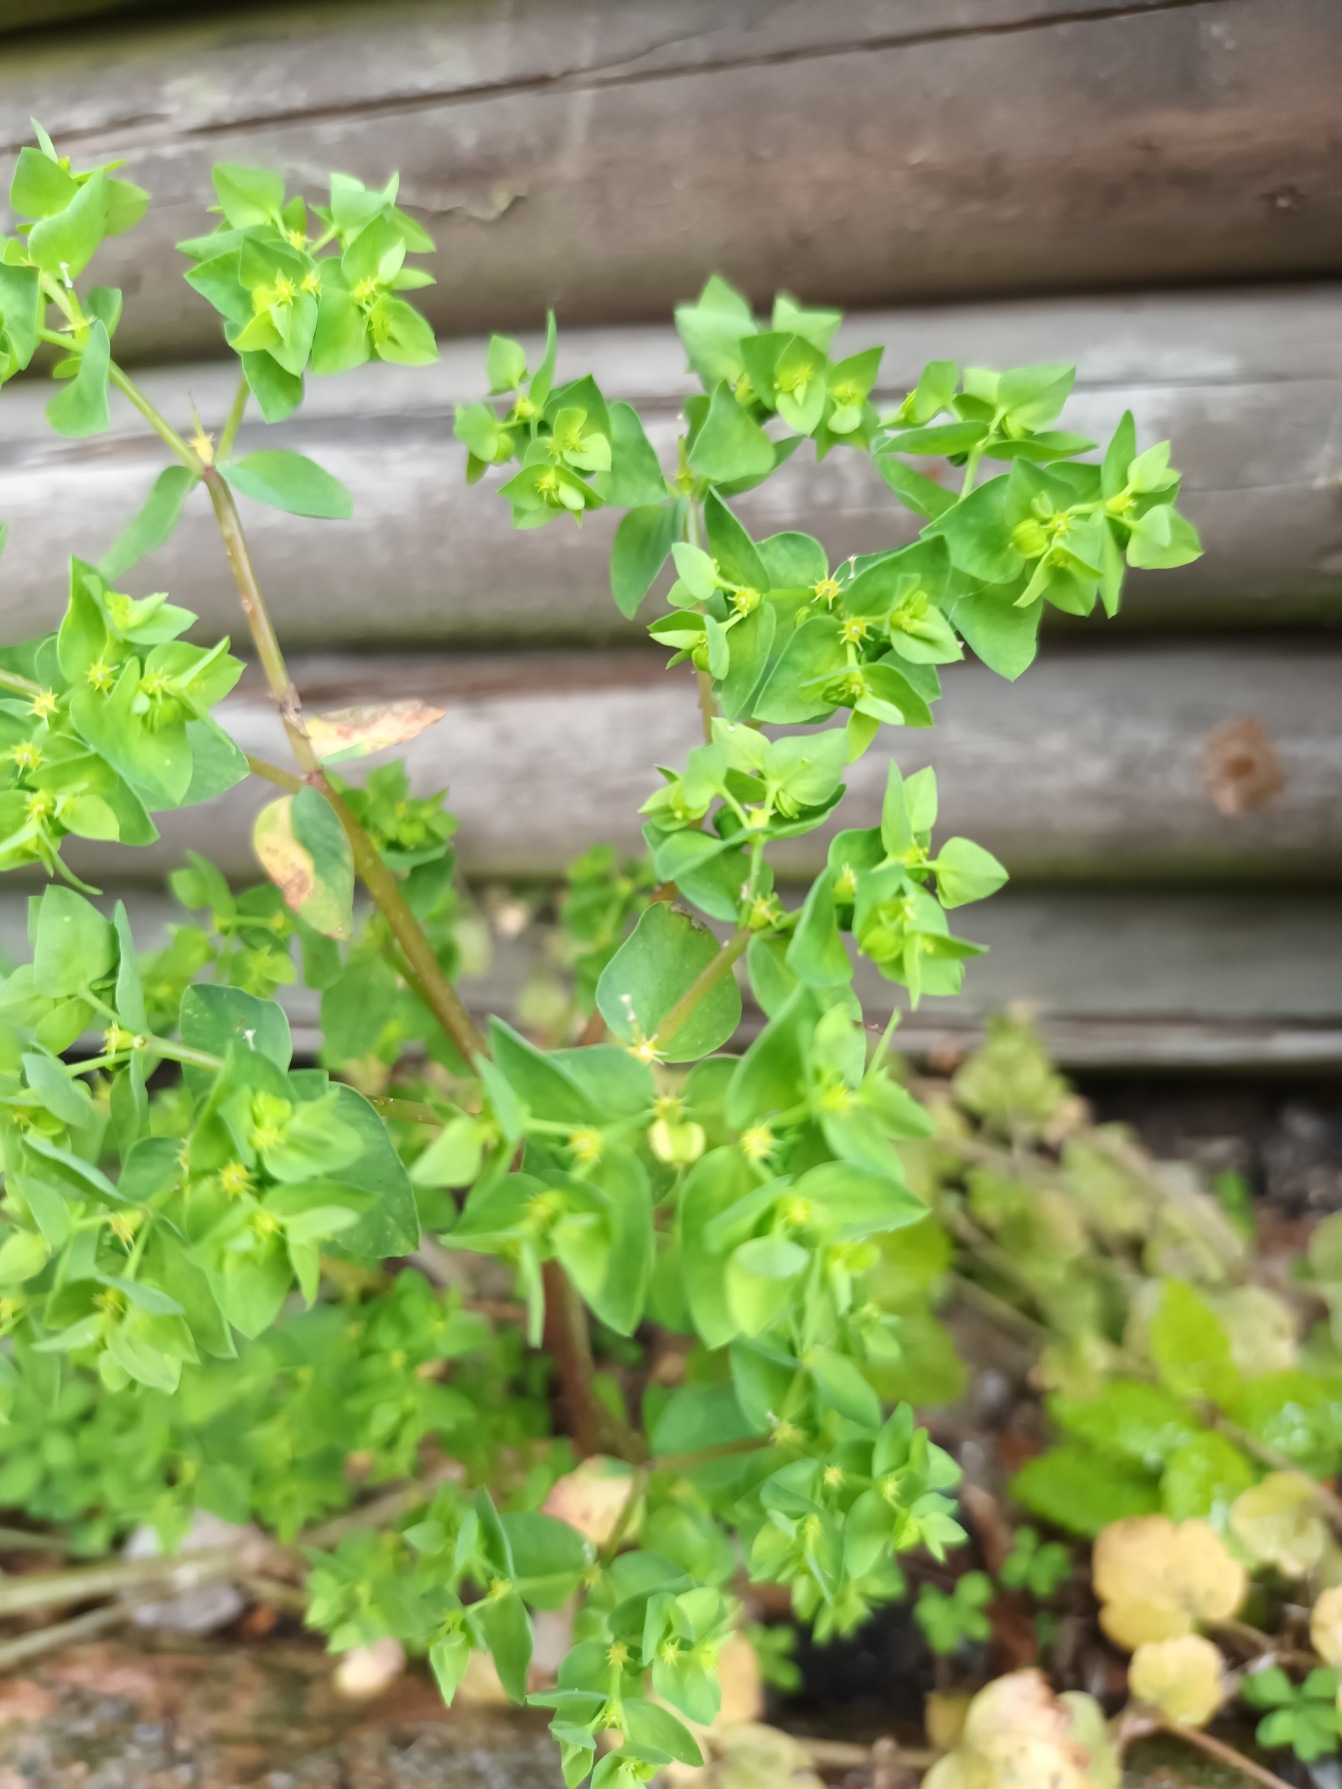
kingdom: Plantae
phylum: Tracheophyta
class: Magnoliopsida
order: Malpighiales
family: Euphorbiaceae
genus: Euphorbia
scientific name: Euphorbia peplus
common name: Gaffel-vortemælk
